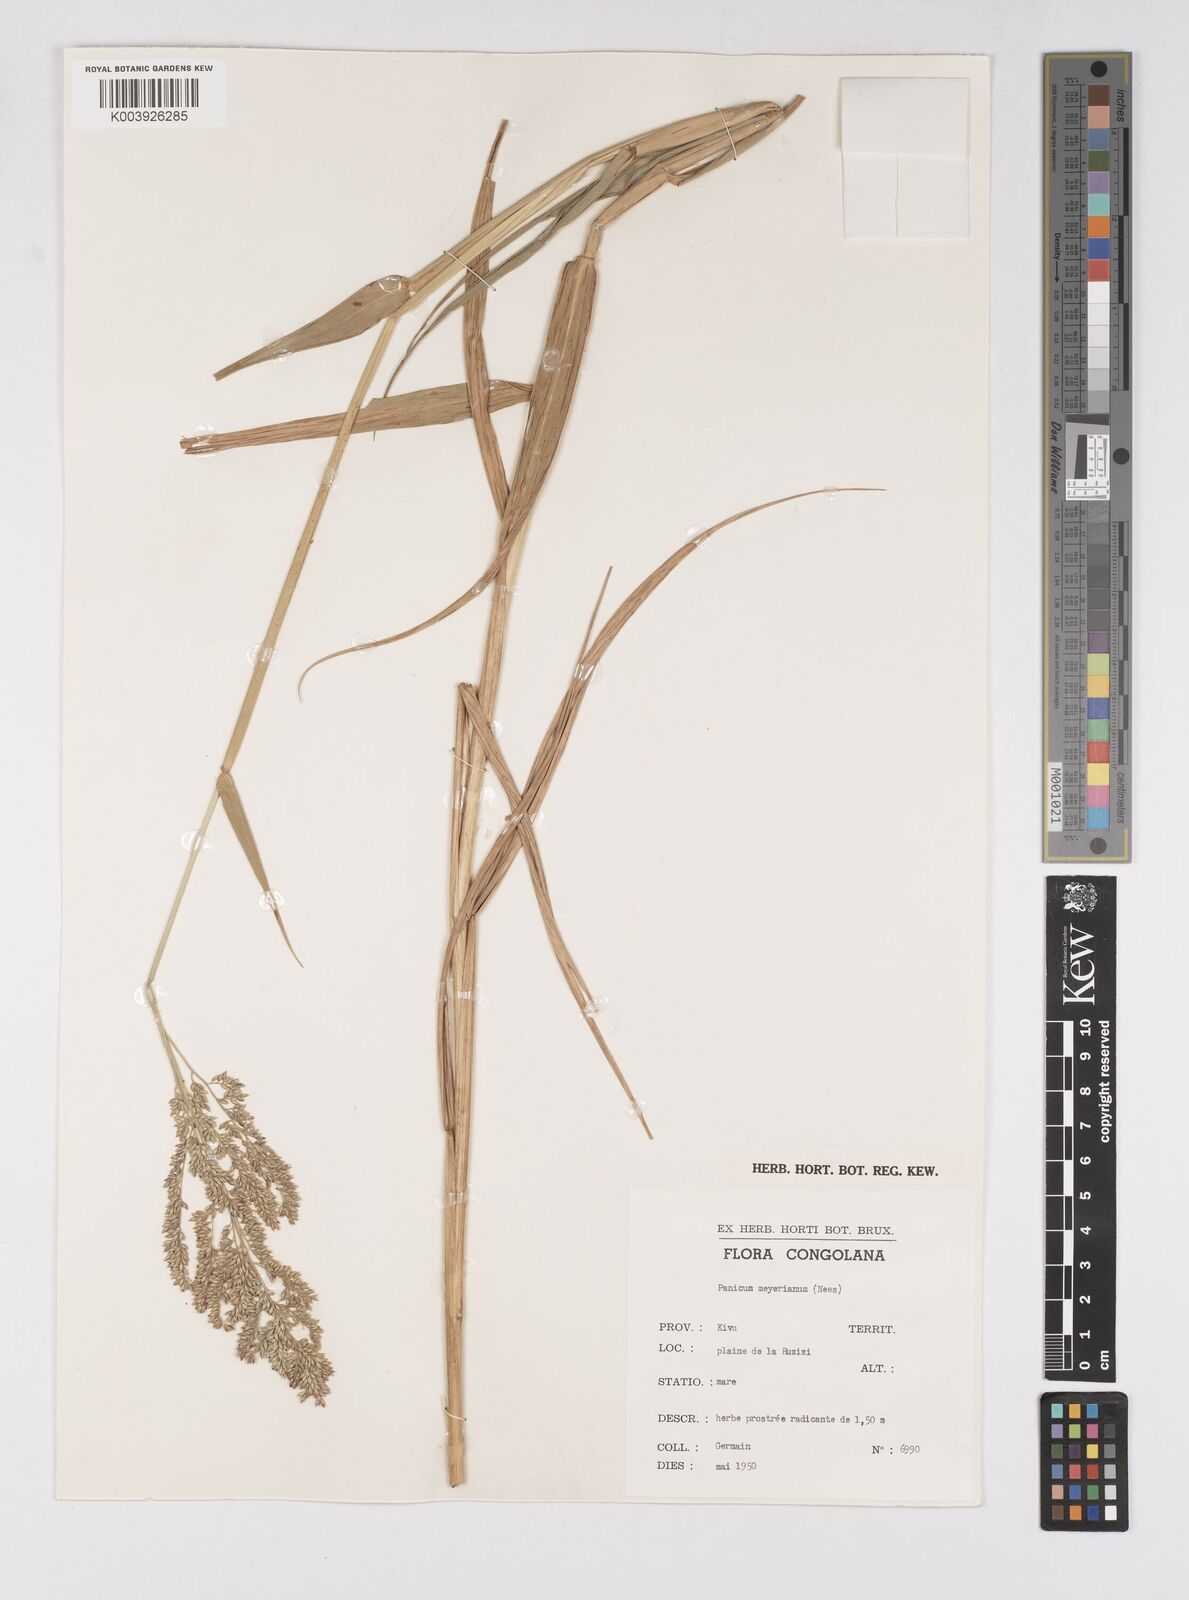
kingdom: Plantae
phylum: Tracheophyta
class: Liliopsida
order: Poales
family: Poaceae
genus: Eriochloa
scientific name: Eriochloa meyeriana
